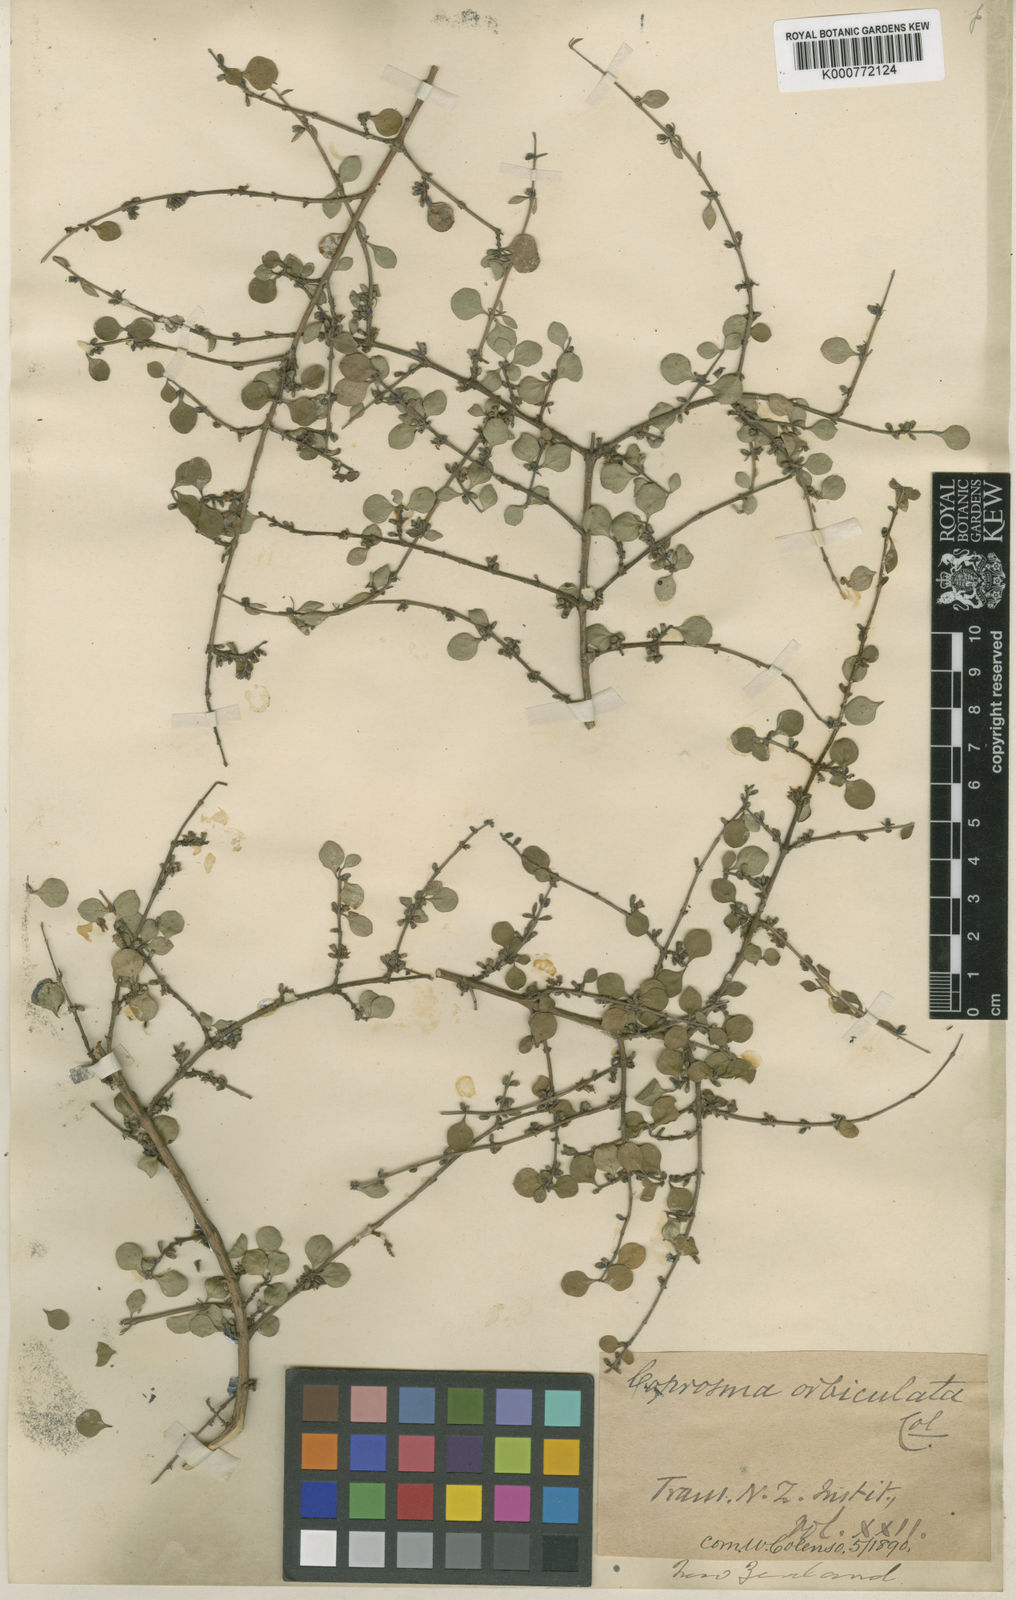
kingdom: Plantae
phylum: Tracheophyta
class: Magnoliopsida
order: Gentianales
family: Rubiaceae
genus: Coprosma
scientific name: Coprosma rhamnoides
